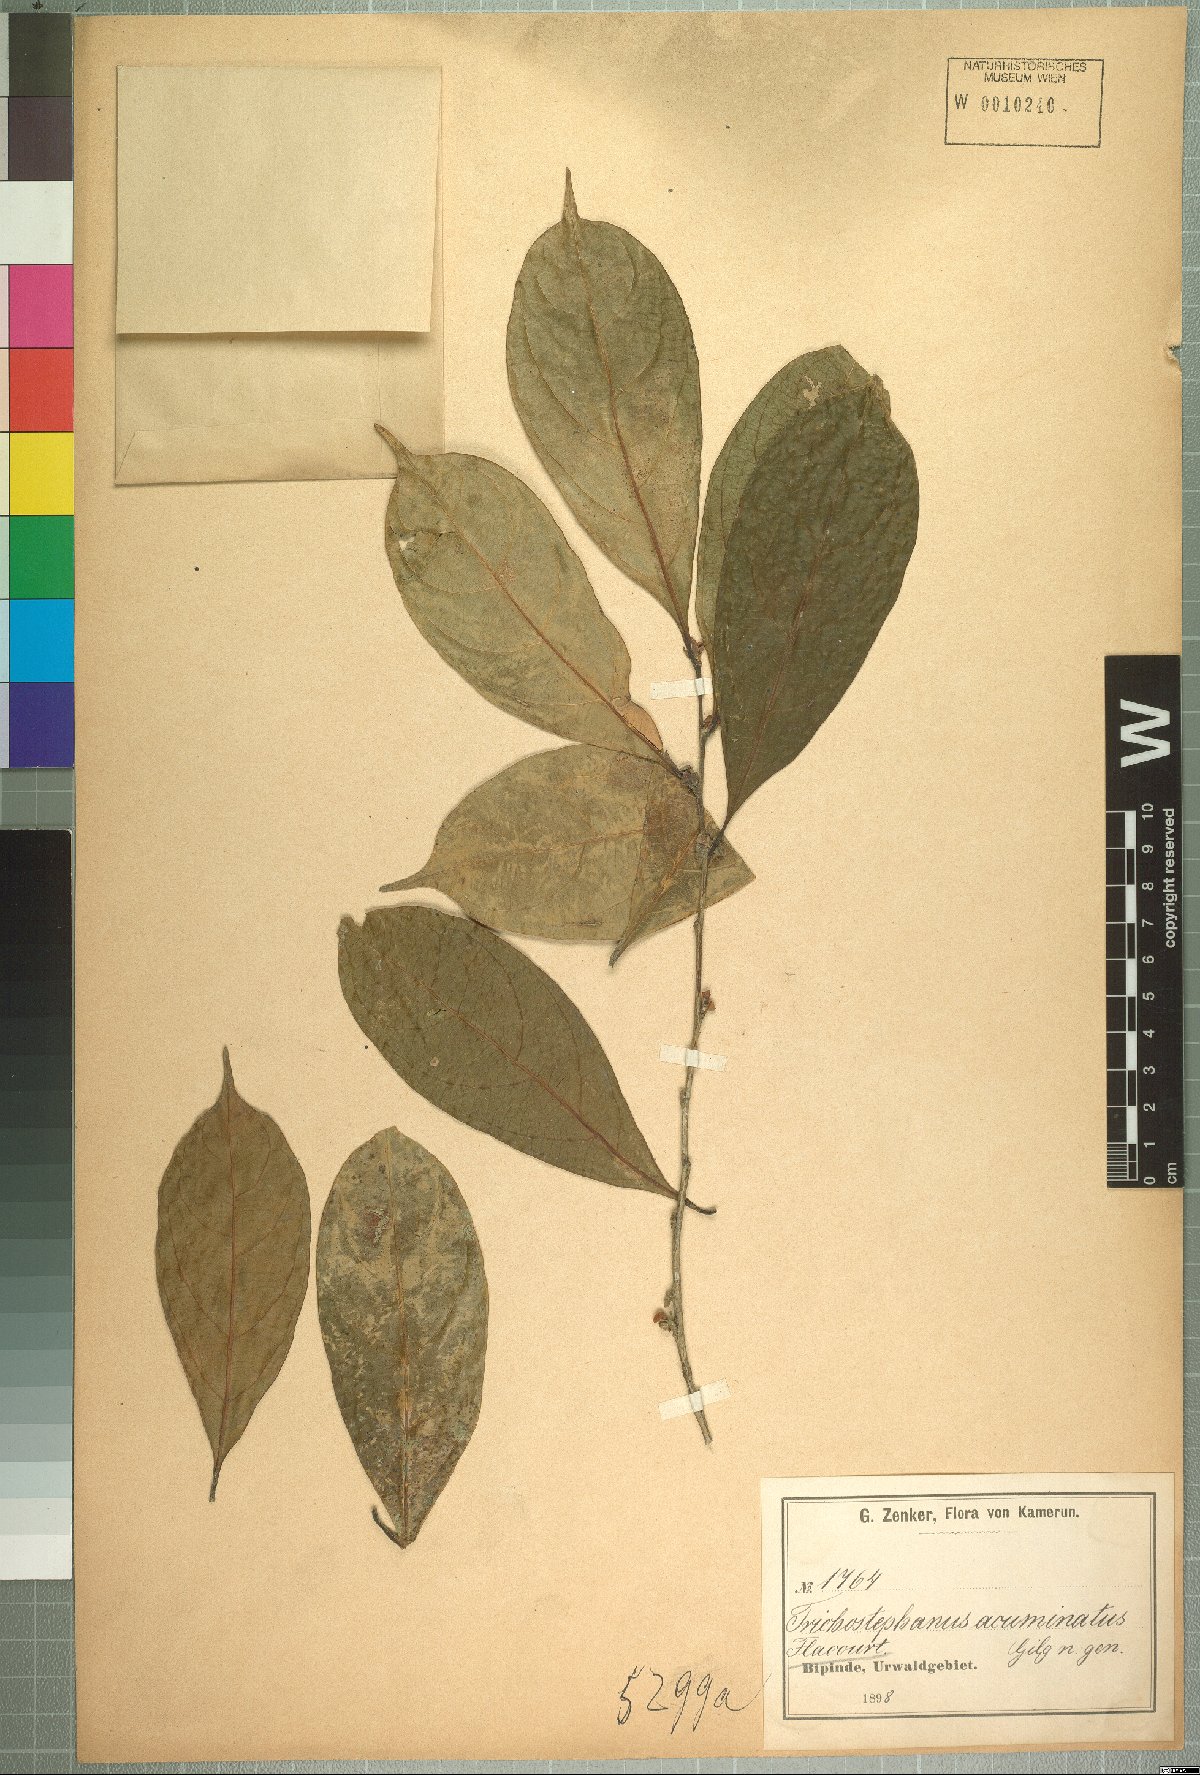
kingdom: Plantae
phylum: Tracheophyta
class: Magnoliopsida
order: Malpighiales
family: Salicaceae
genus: Trichostephanus
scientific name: Trichostephanus acuminatus
